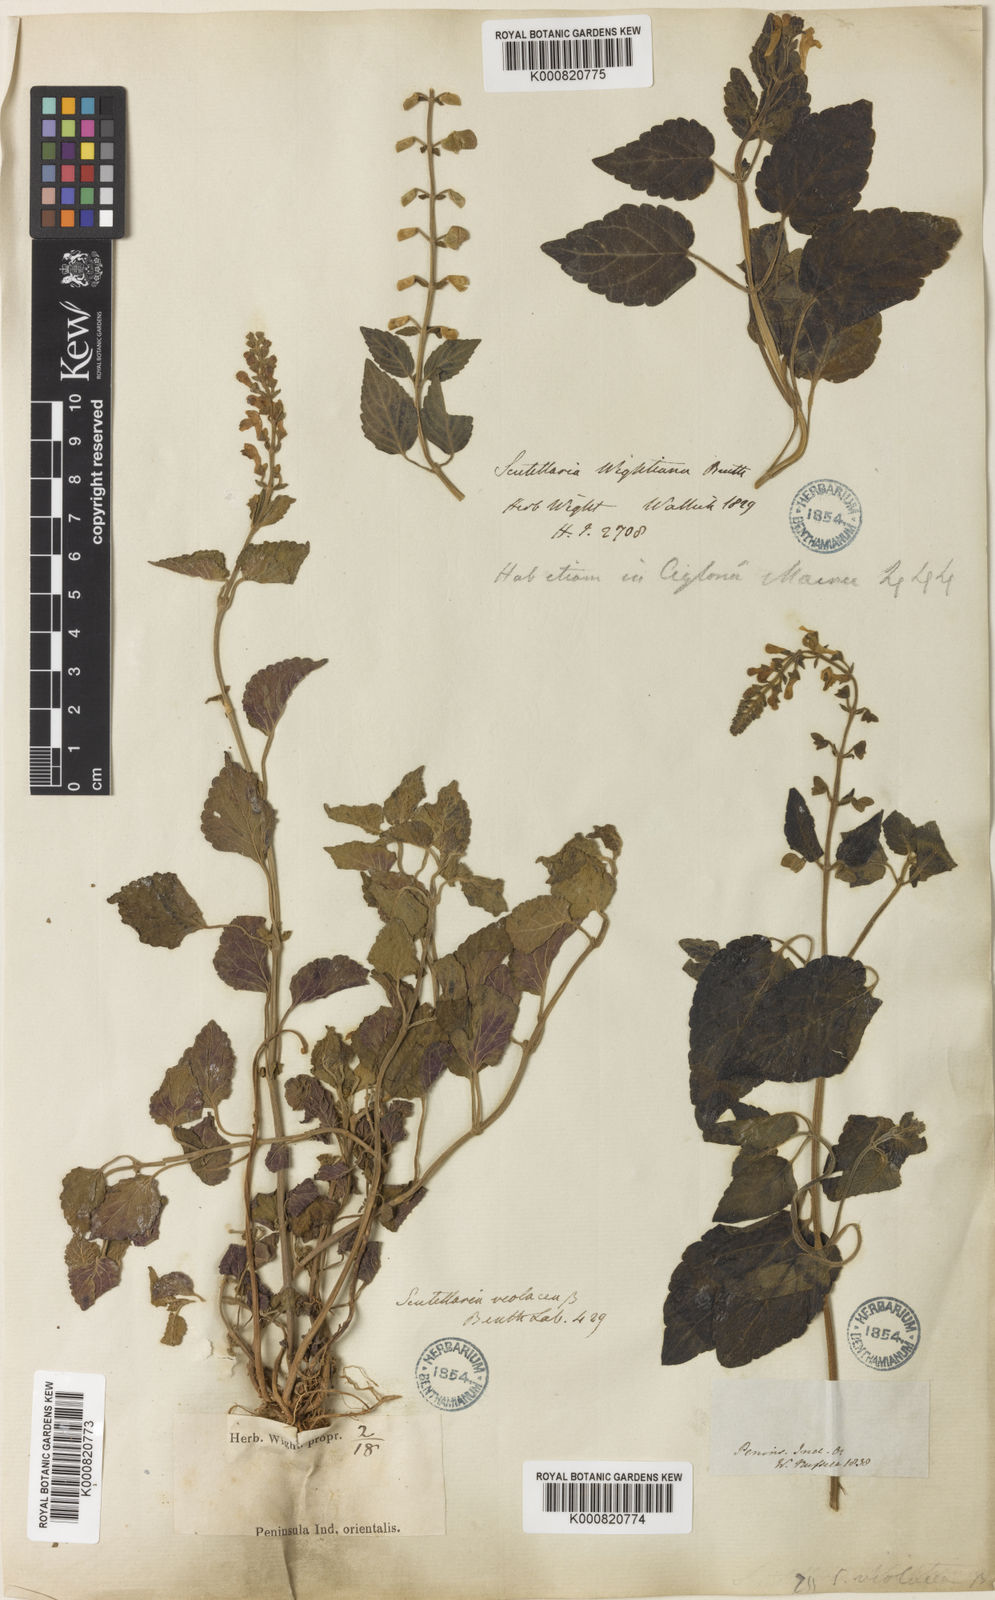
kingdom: Plantae
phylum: Tracheophyta
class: Magnoliopsida
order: Lamiales
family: Lamiaceae
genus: Scutellaria
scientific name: Scutellaria violacea
